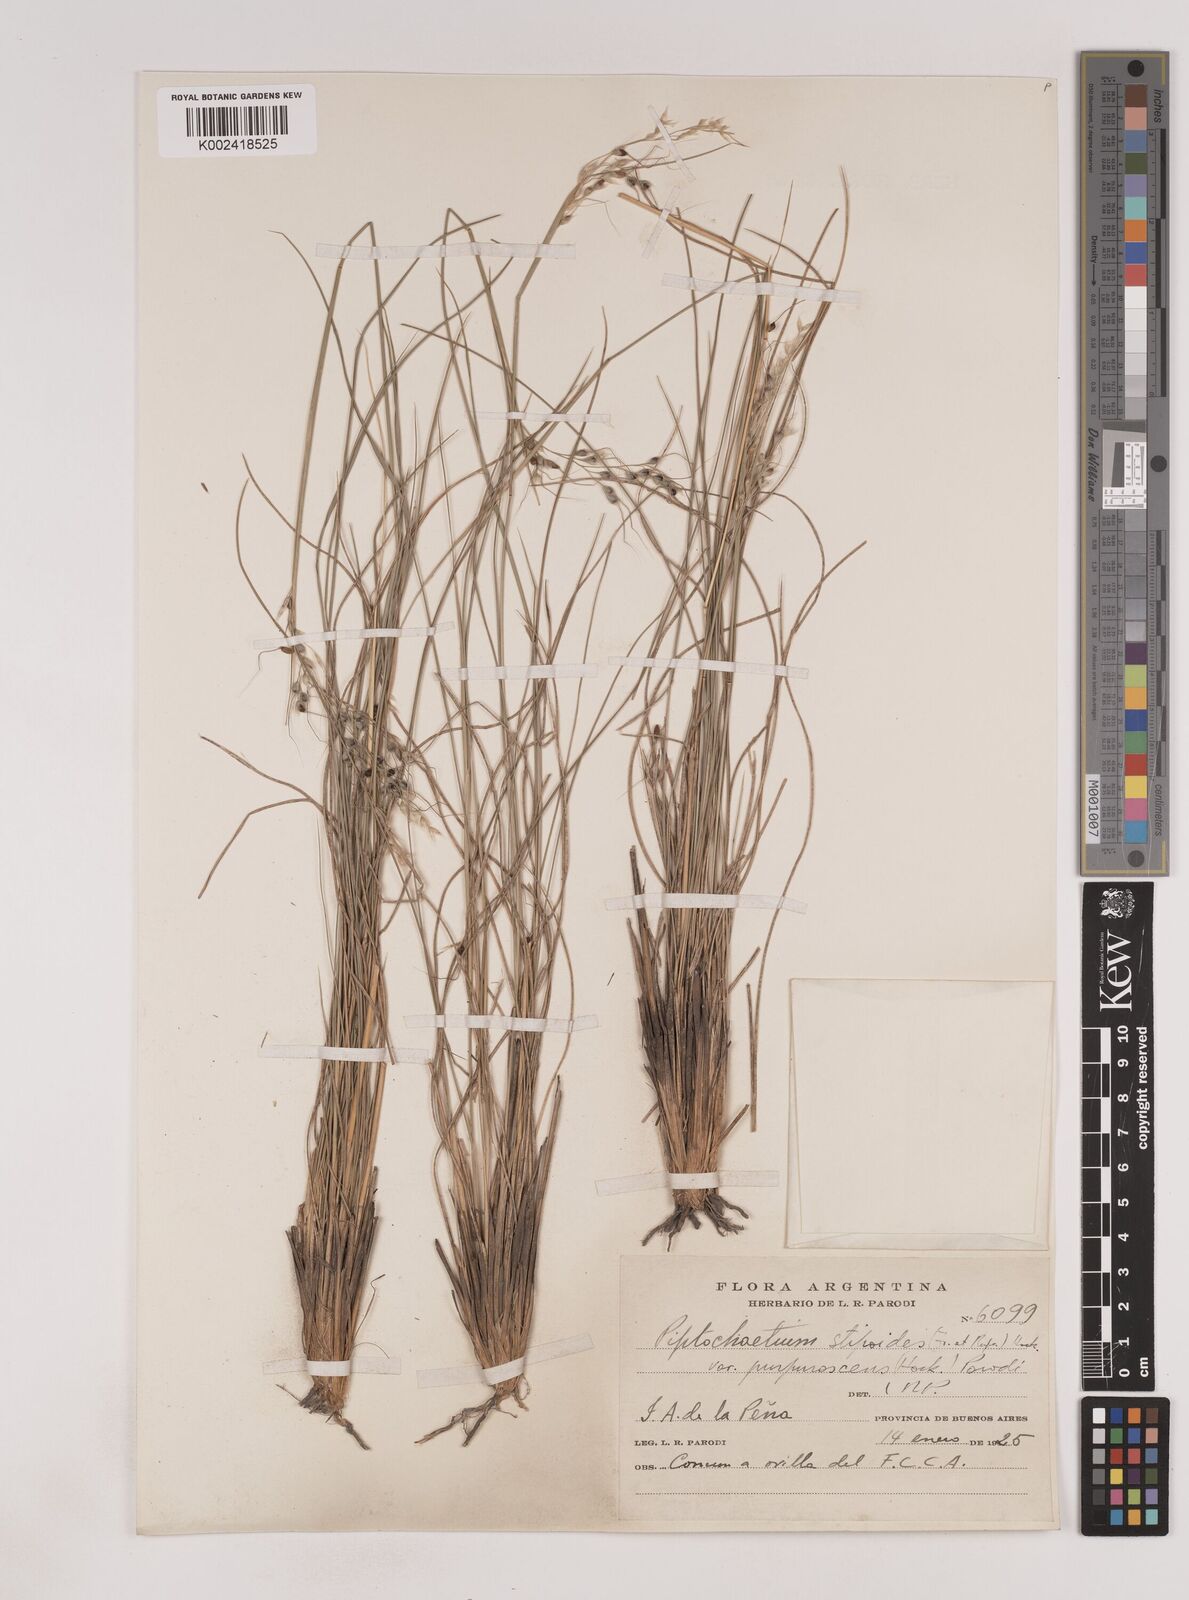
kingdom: Plantae
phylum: Tracheophyta
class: Liliopsida
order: Poales
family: Poaceae
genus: Piptochaetium
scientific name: Piptochaetium stipoides
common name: Purple speargrass
